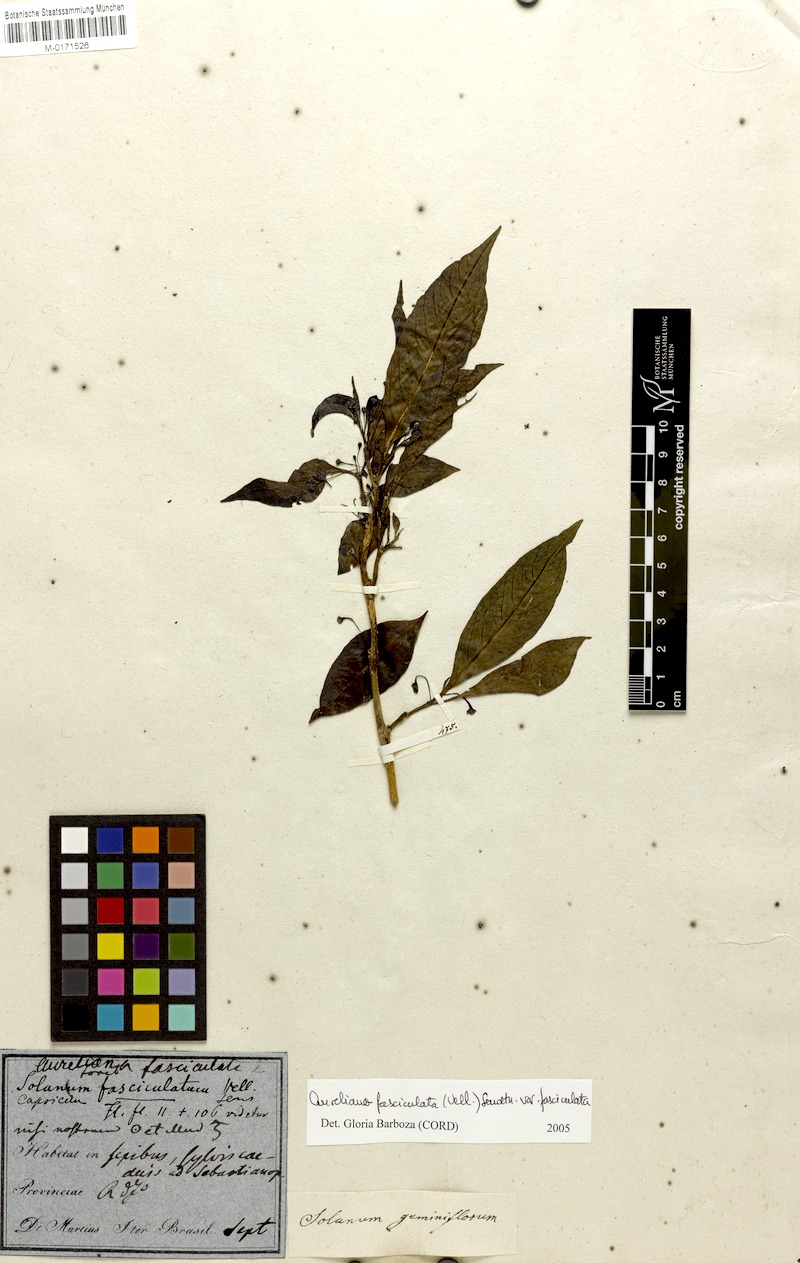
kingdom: Plantae
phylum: Tracheophyta
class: Magnoliopsida
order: Solanales
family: Solanaceae
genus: Athenaea
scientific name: Athenaea fasciculata
